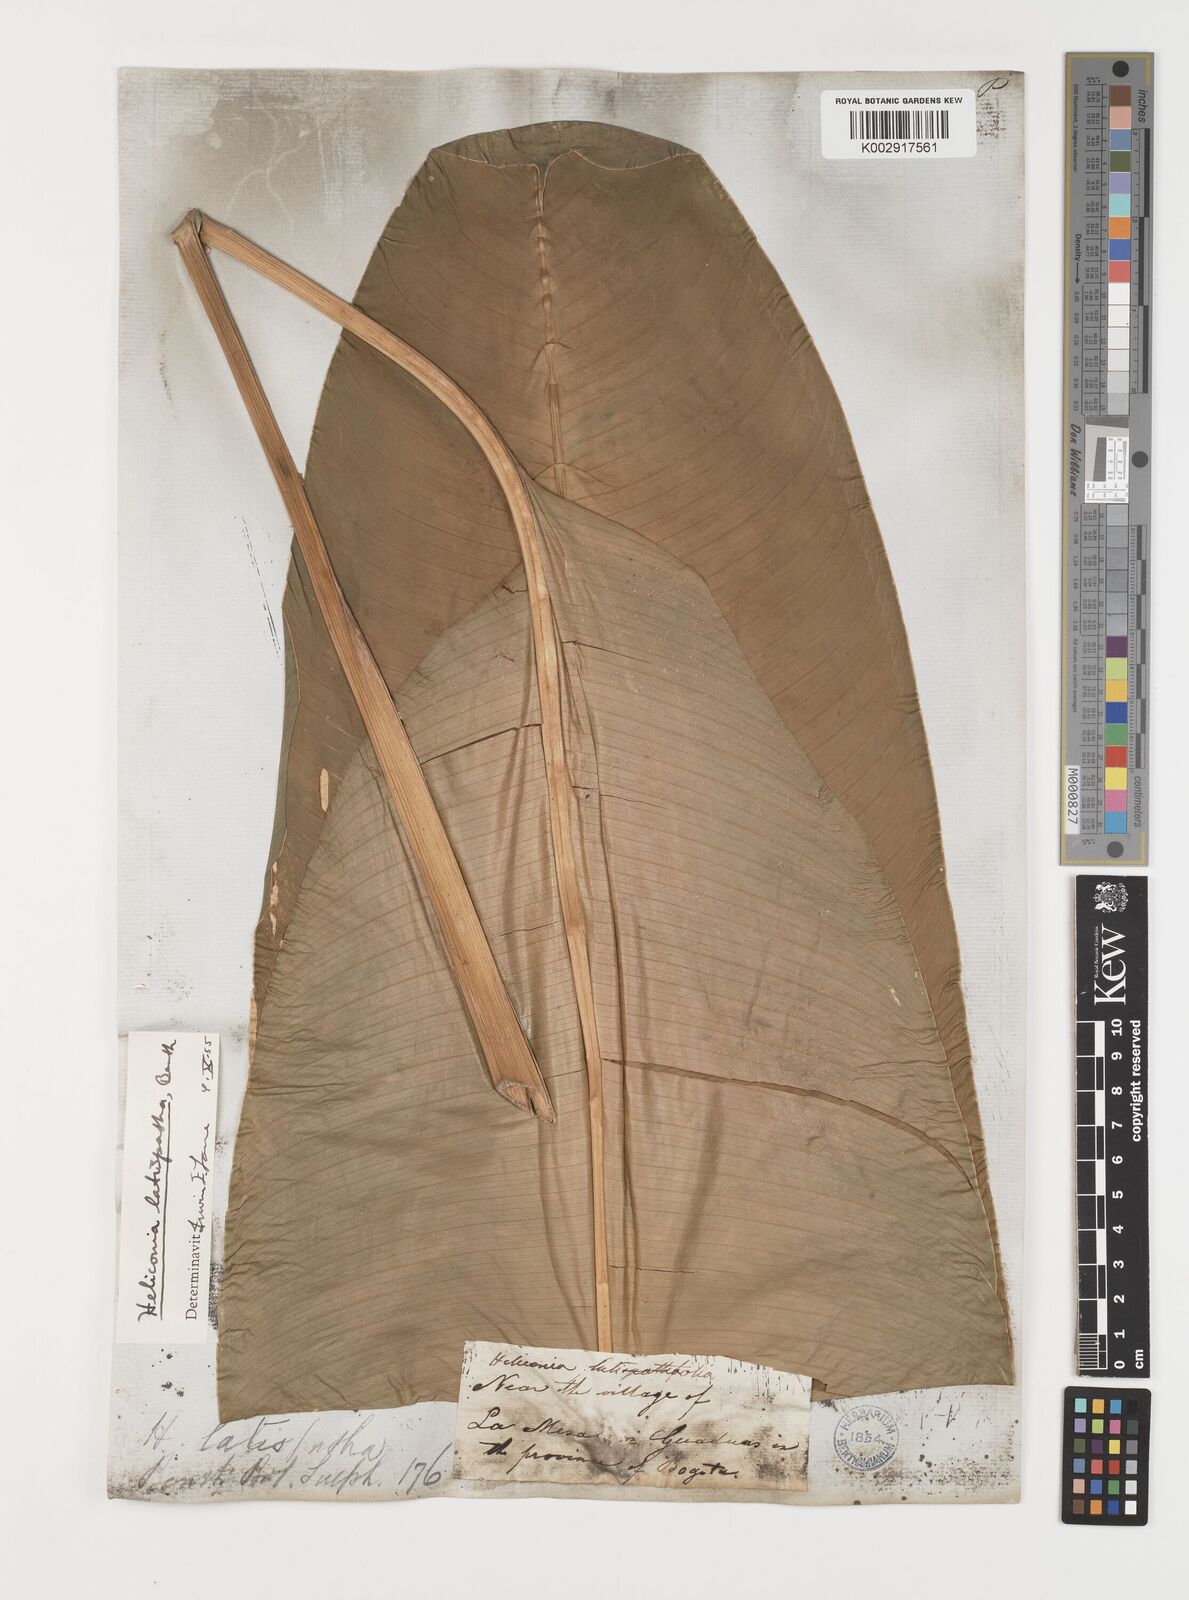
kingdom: Plantae
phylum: Tracheophyta
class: Liliopsida
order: Zingiberales
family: Heliconiaceae
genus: Heliconia
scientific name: Heliconia latispatha
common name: Expanded lobsterclaw
